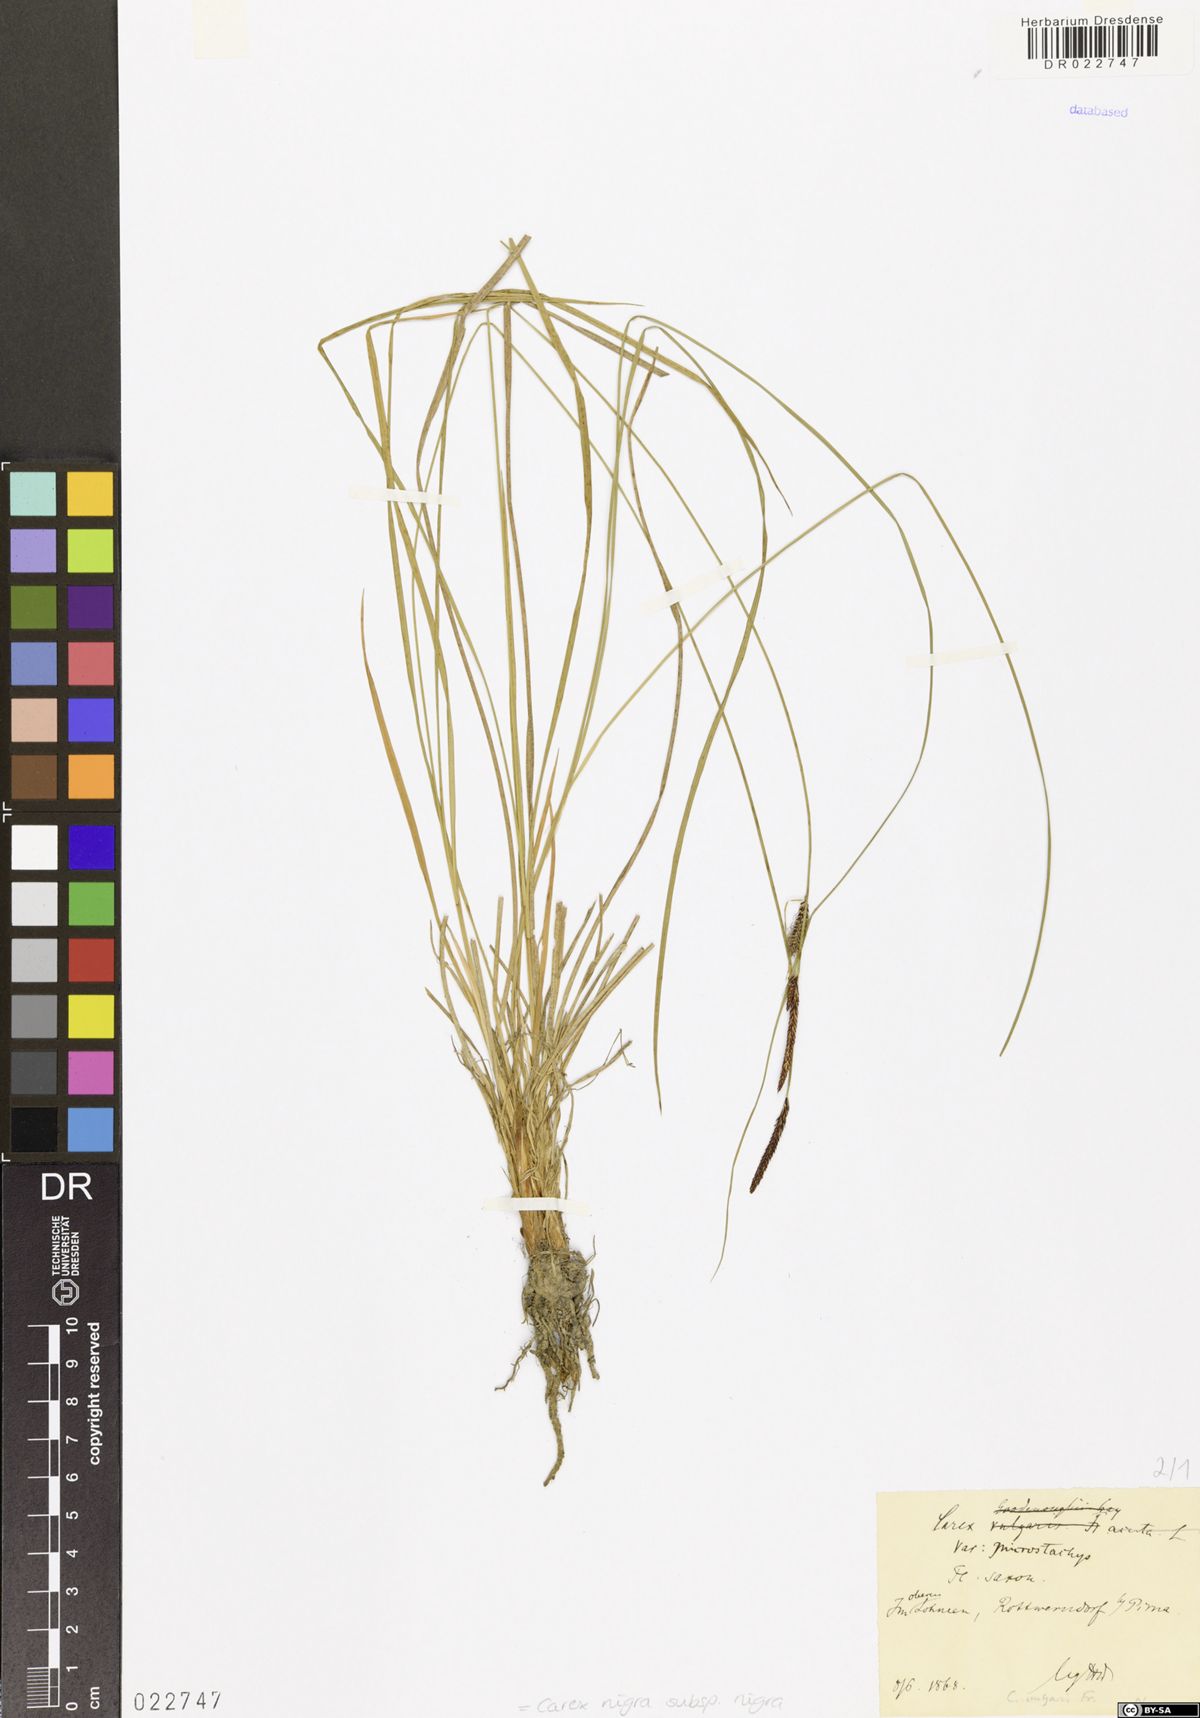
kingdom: Plantae
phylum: Tracheophyta
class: Liliopsida
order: Poales
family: Cyperaceae
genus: Carex
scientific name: Carex nigra
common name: Common sedge
